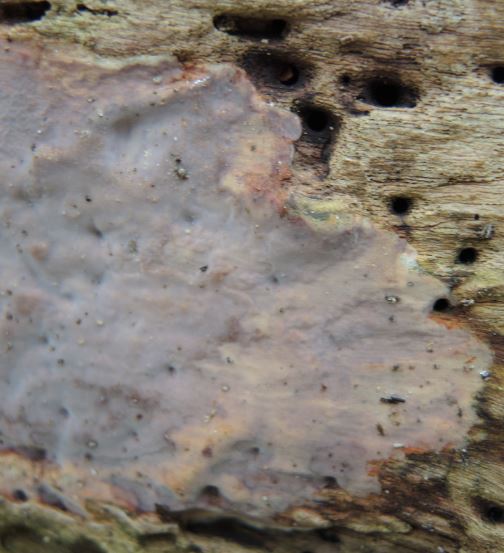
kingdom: Fungi
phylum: Basidiomycota
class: Agaricomycetes
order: Russulales
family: Peniophoraceae
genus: Scytinostroma
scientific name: Scytinostroma hemidichophyticum
